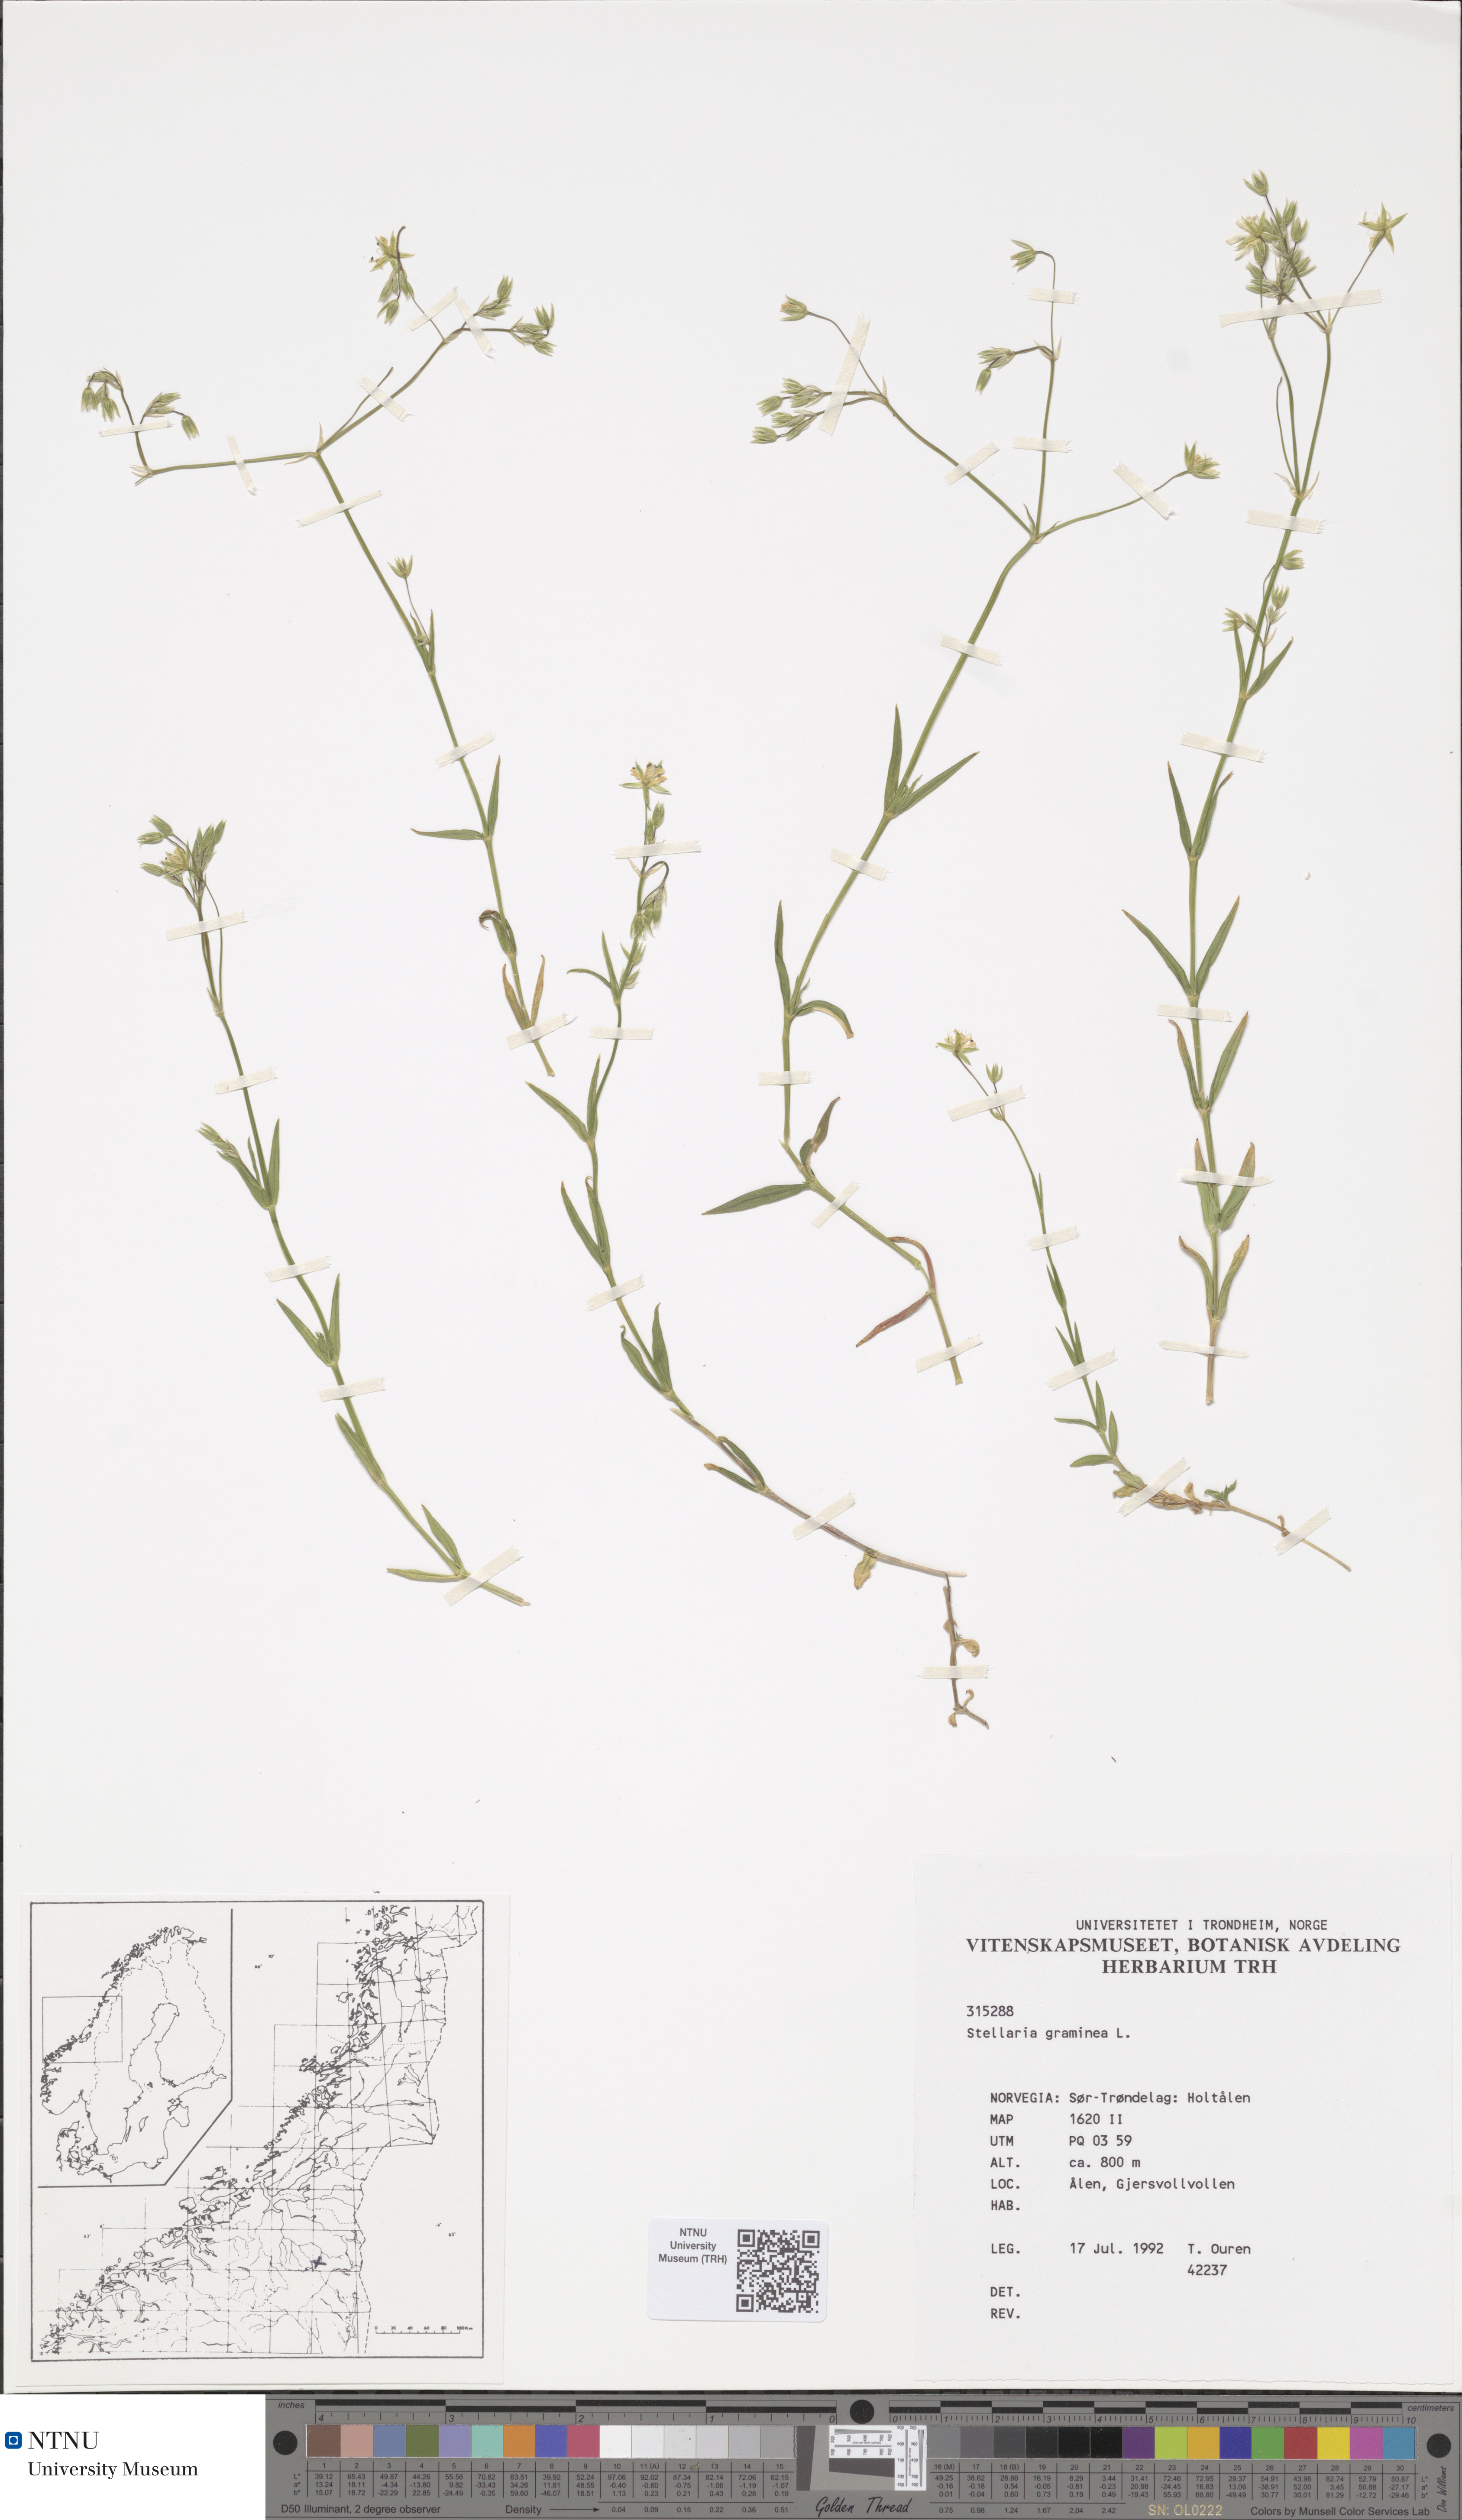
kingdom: Plantae
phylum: Tracheophyta
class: Magnoliopsida
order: Caryophyllales
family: Caryophyllaceae
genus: Stellaria
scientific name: Stellaria graminea
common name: Grass-like starwort
